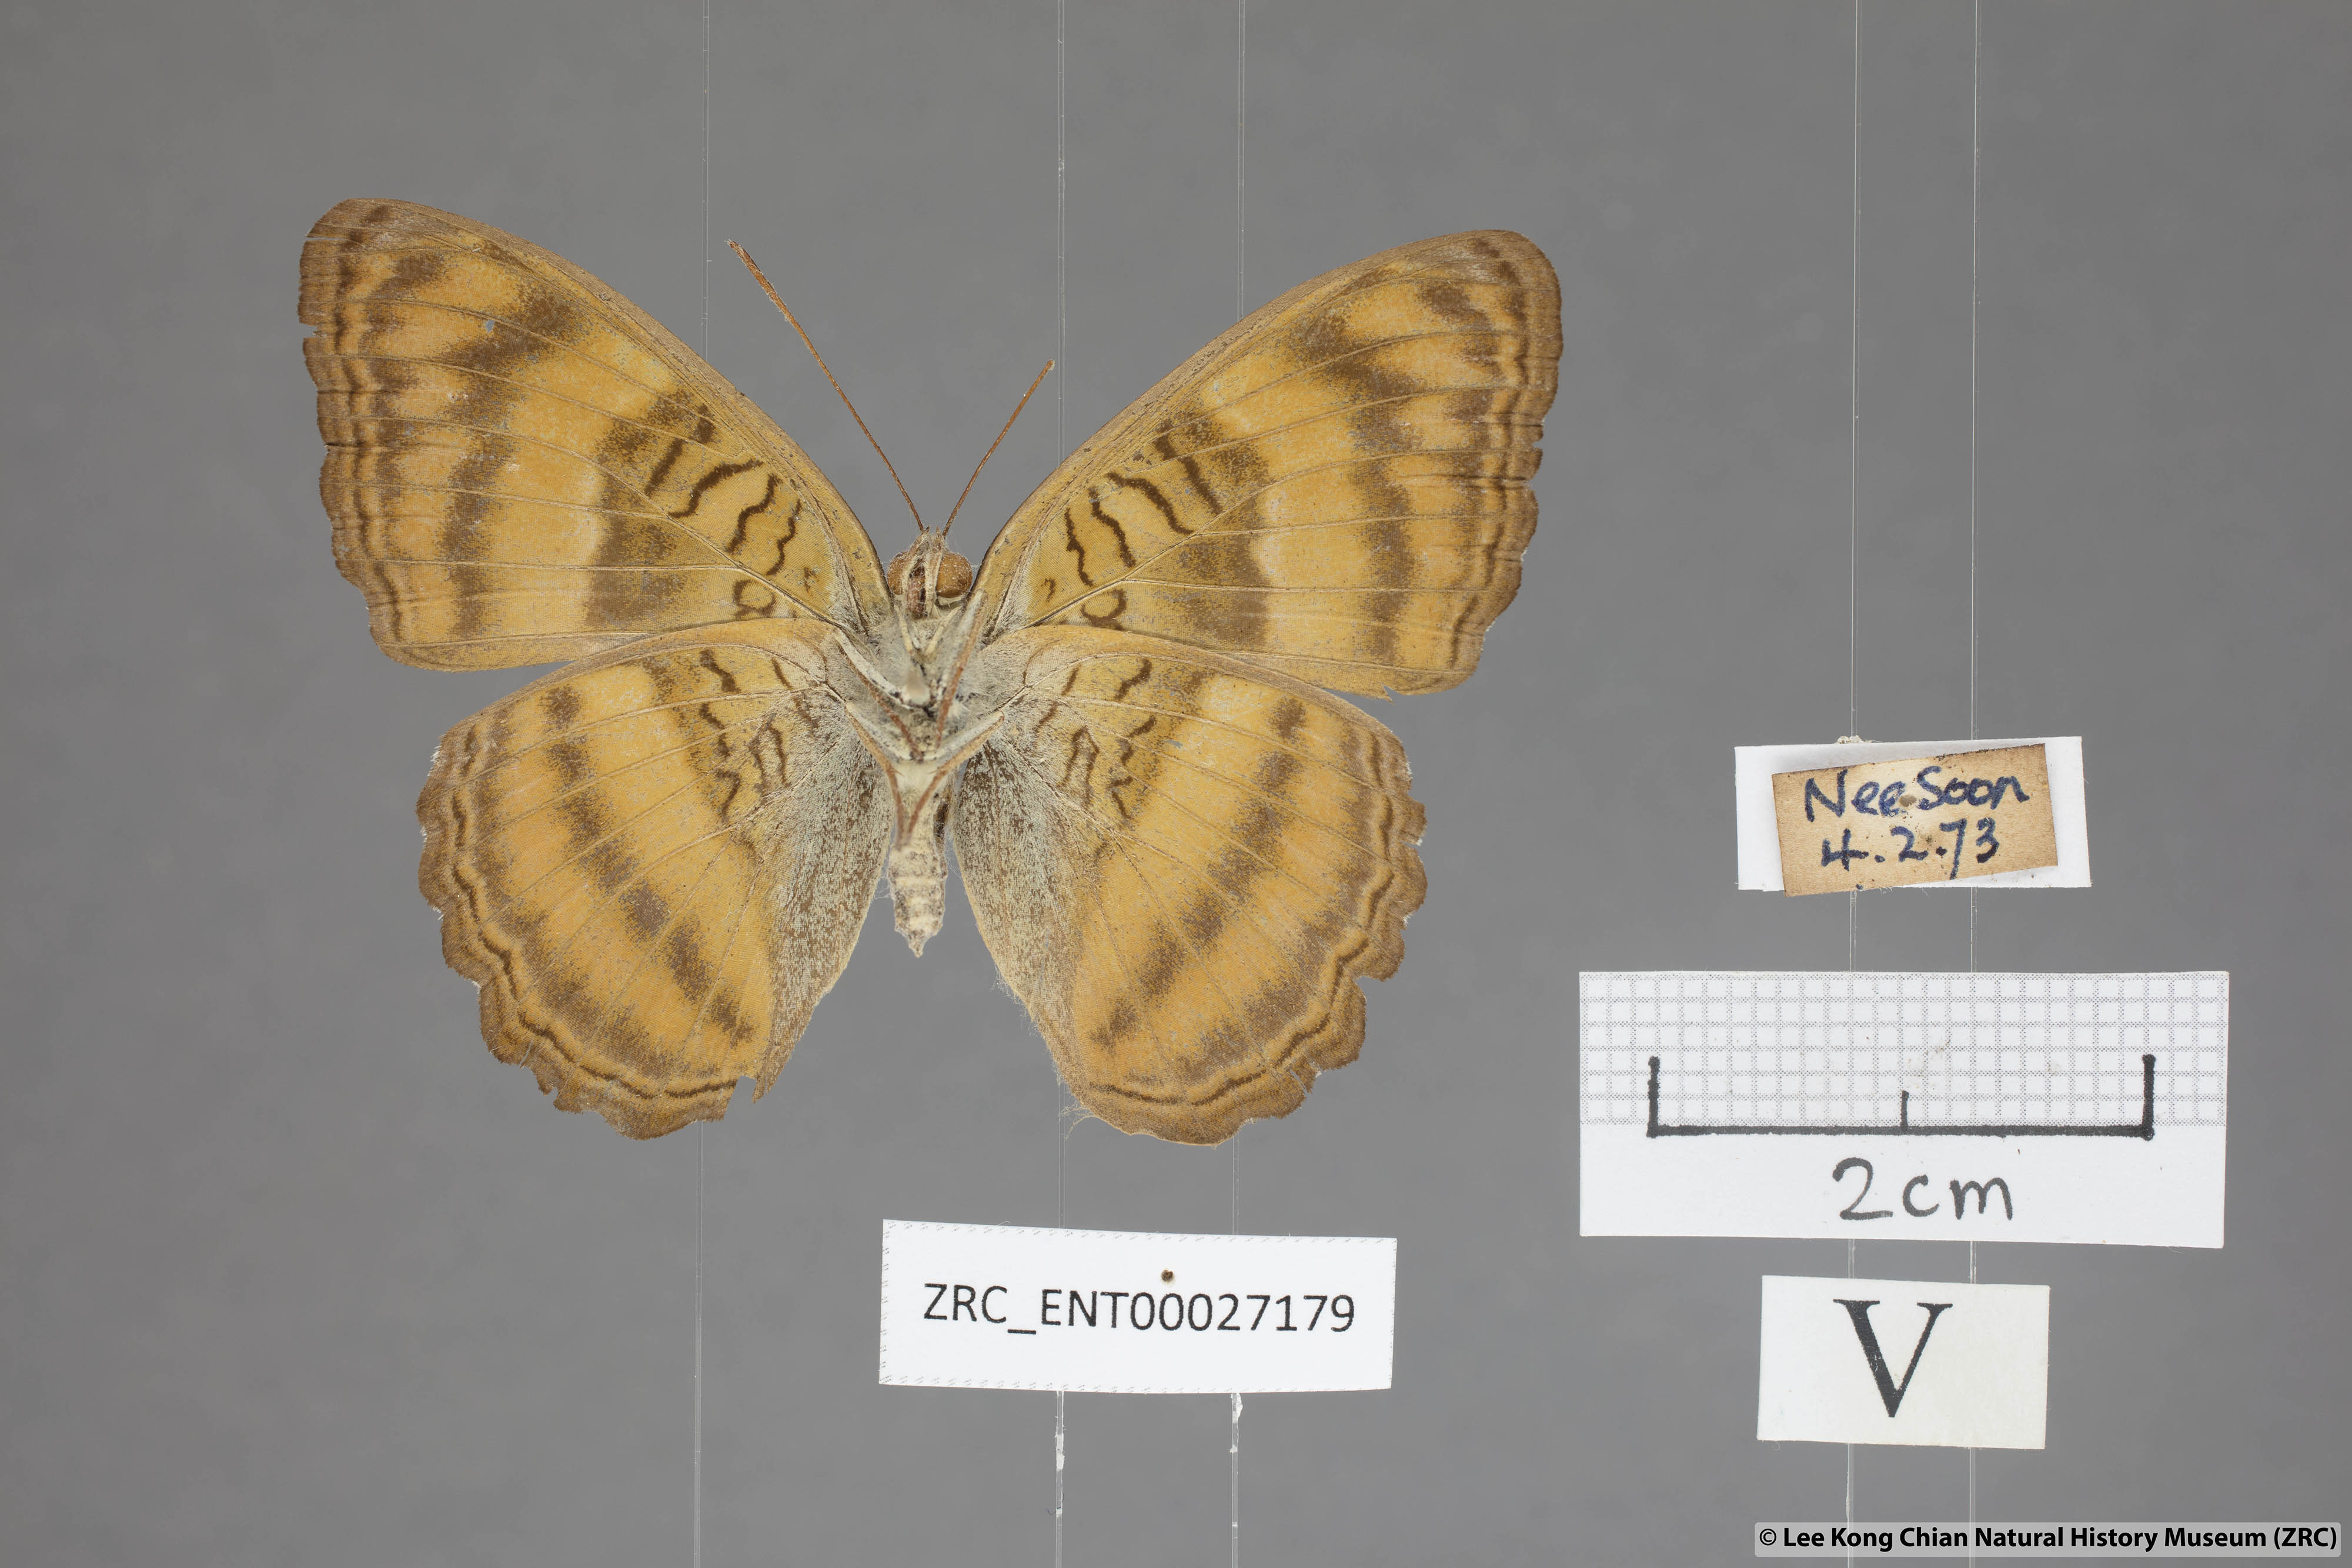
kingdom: Animalia
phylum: Arthropoda
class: Insecta
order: Lepidoptera
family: Nymphalidae
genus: Pandita
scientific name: Pandita sinope
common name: Colonel
